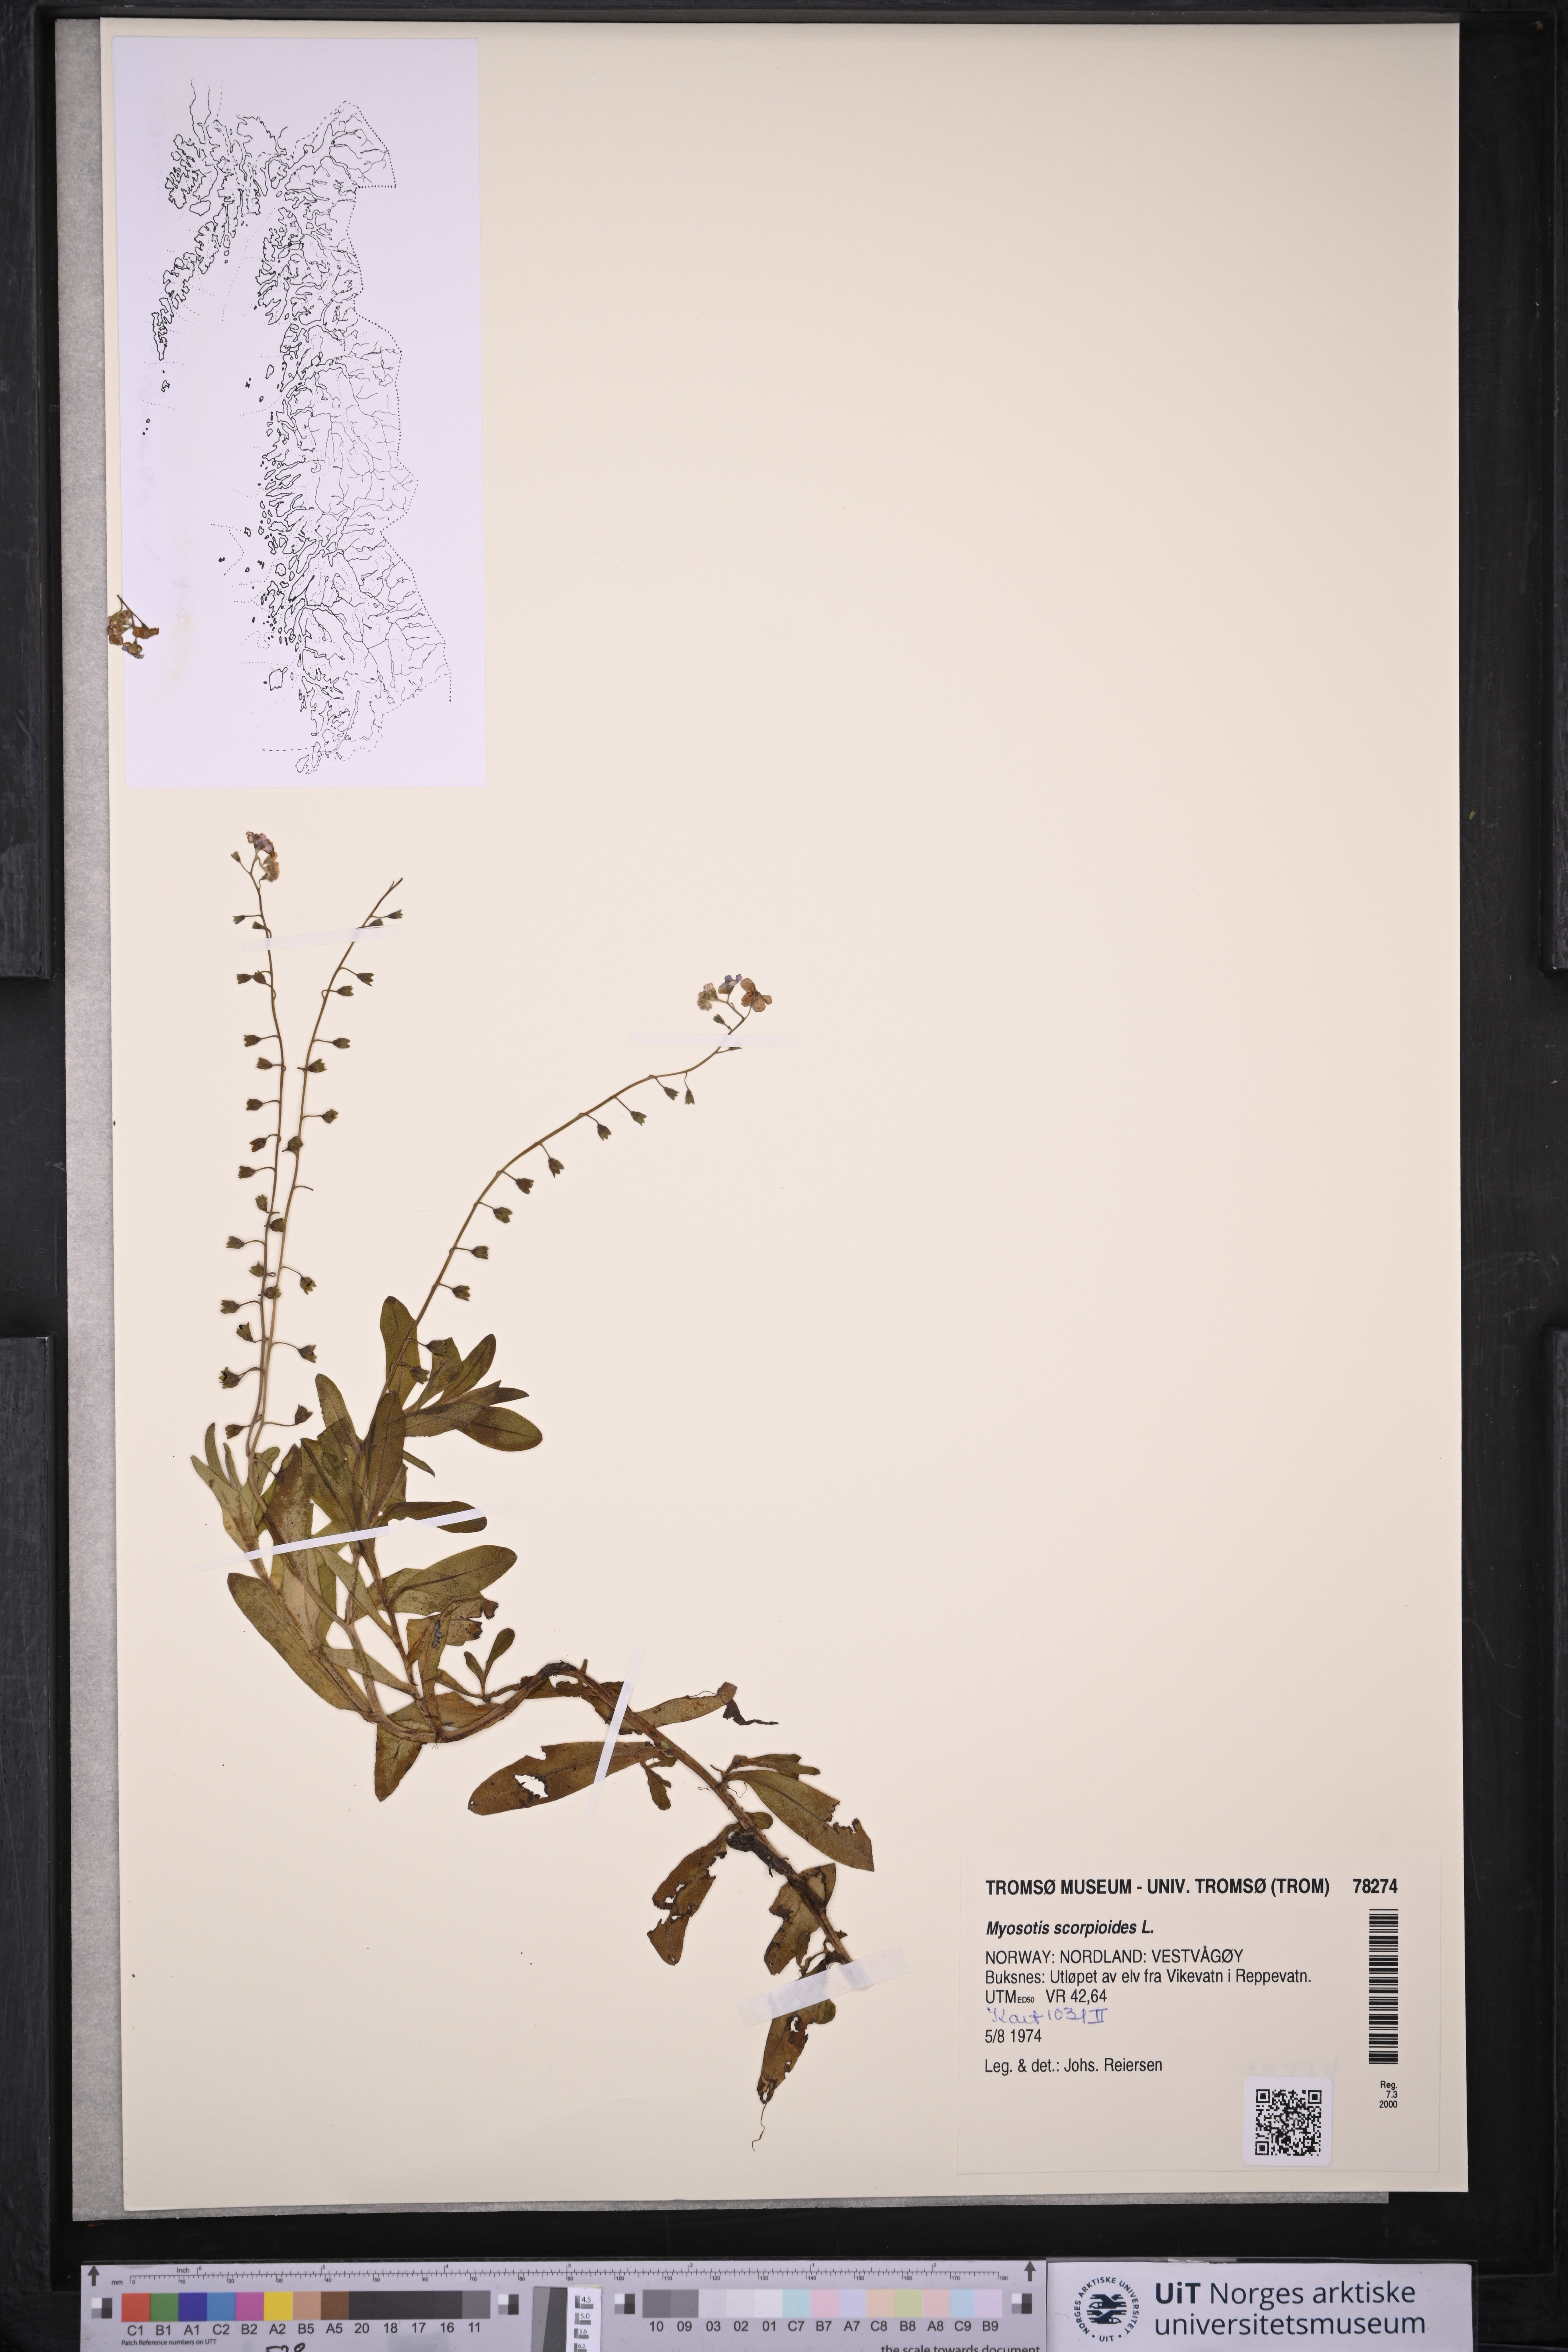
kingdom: Plantae
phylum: Tracheophyta
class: Magnoliopsida
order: Boraginales
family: Boraginaceae
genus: Myosotis
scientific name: Myosotis scorpioides
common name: Water forget-me-not
